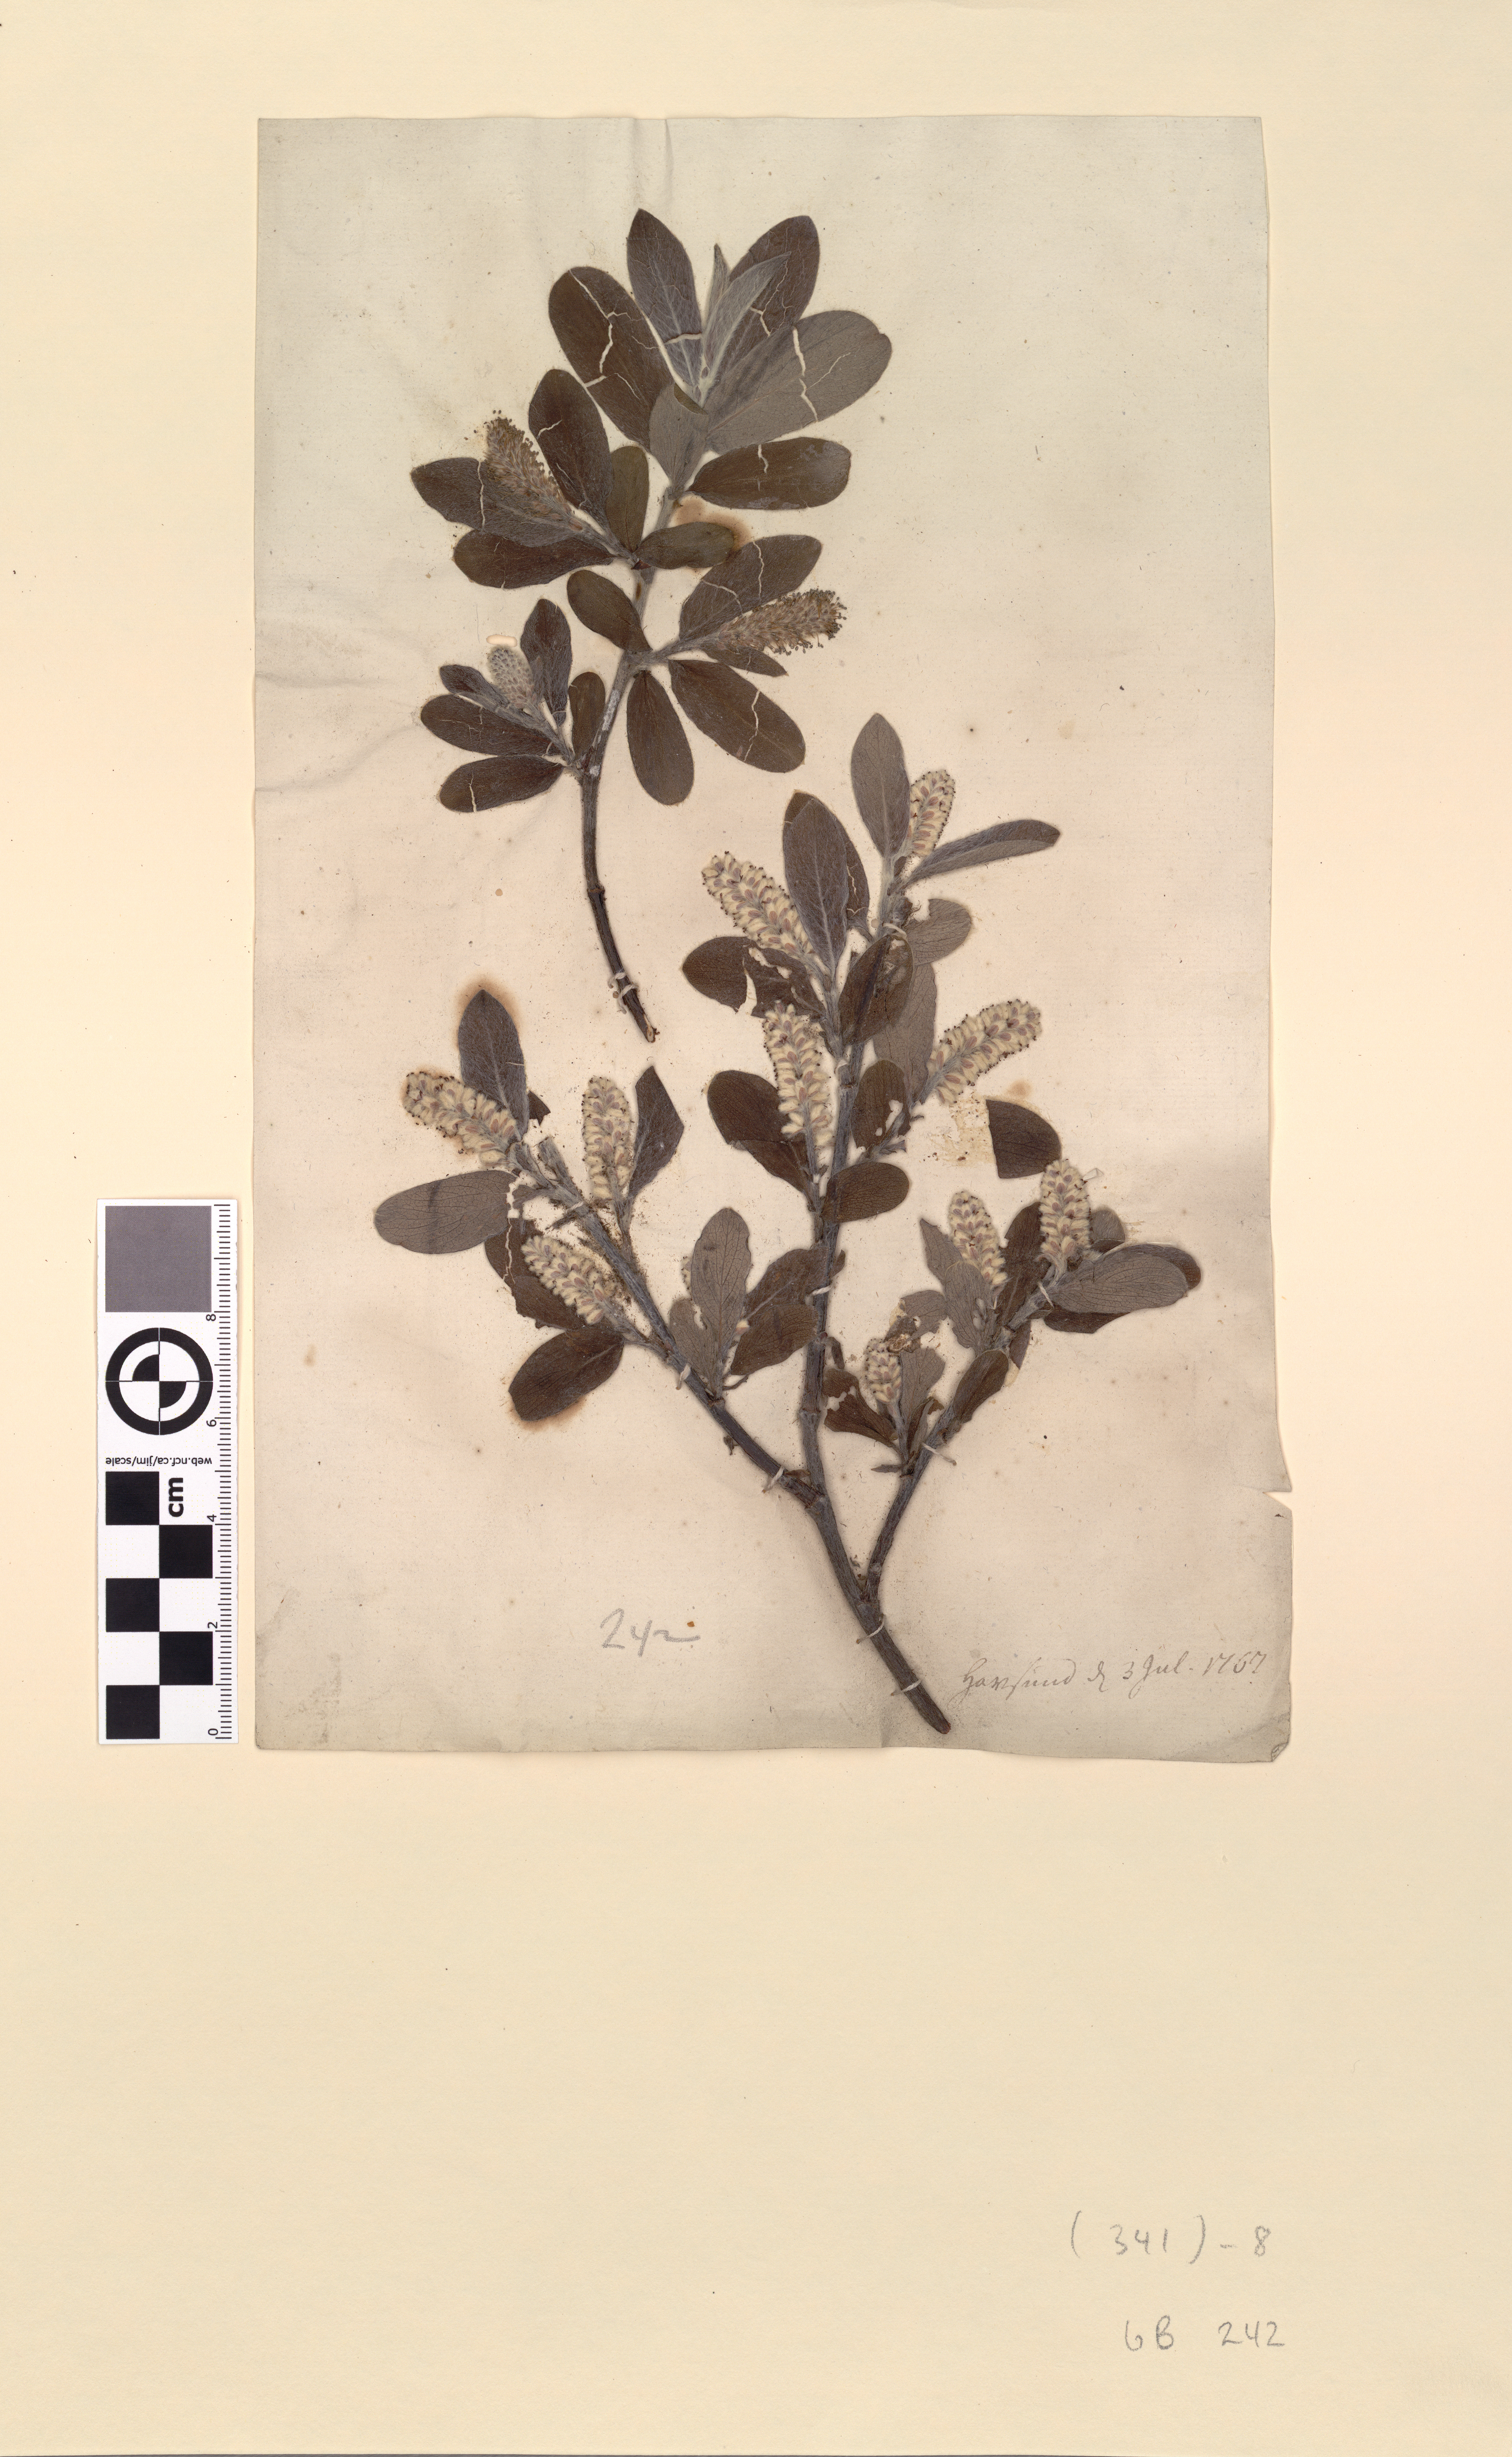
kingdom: Plantae
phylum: Tracheophyta
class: Magnoliopsida
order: Malpighiales
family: Salicaceae
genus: Salix
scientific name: Salix glauca
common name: Glaucous willow
